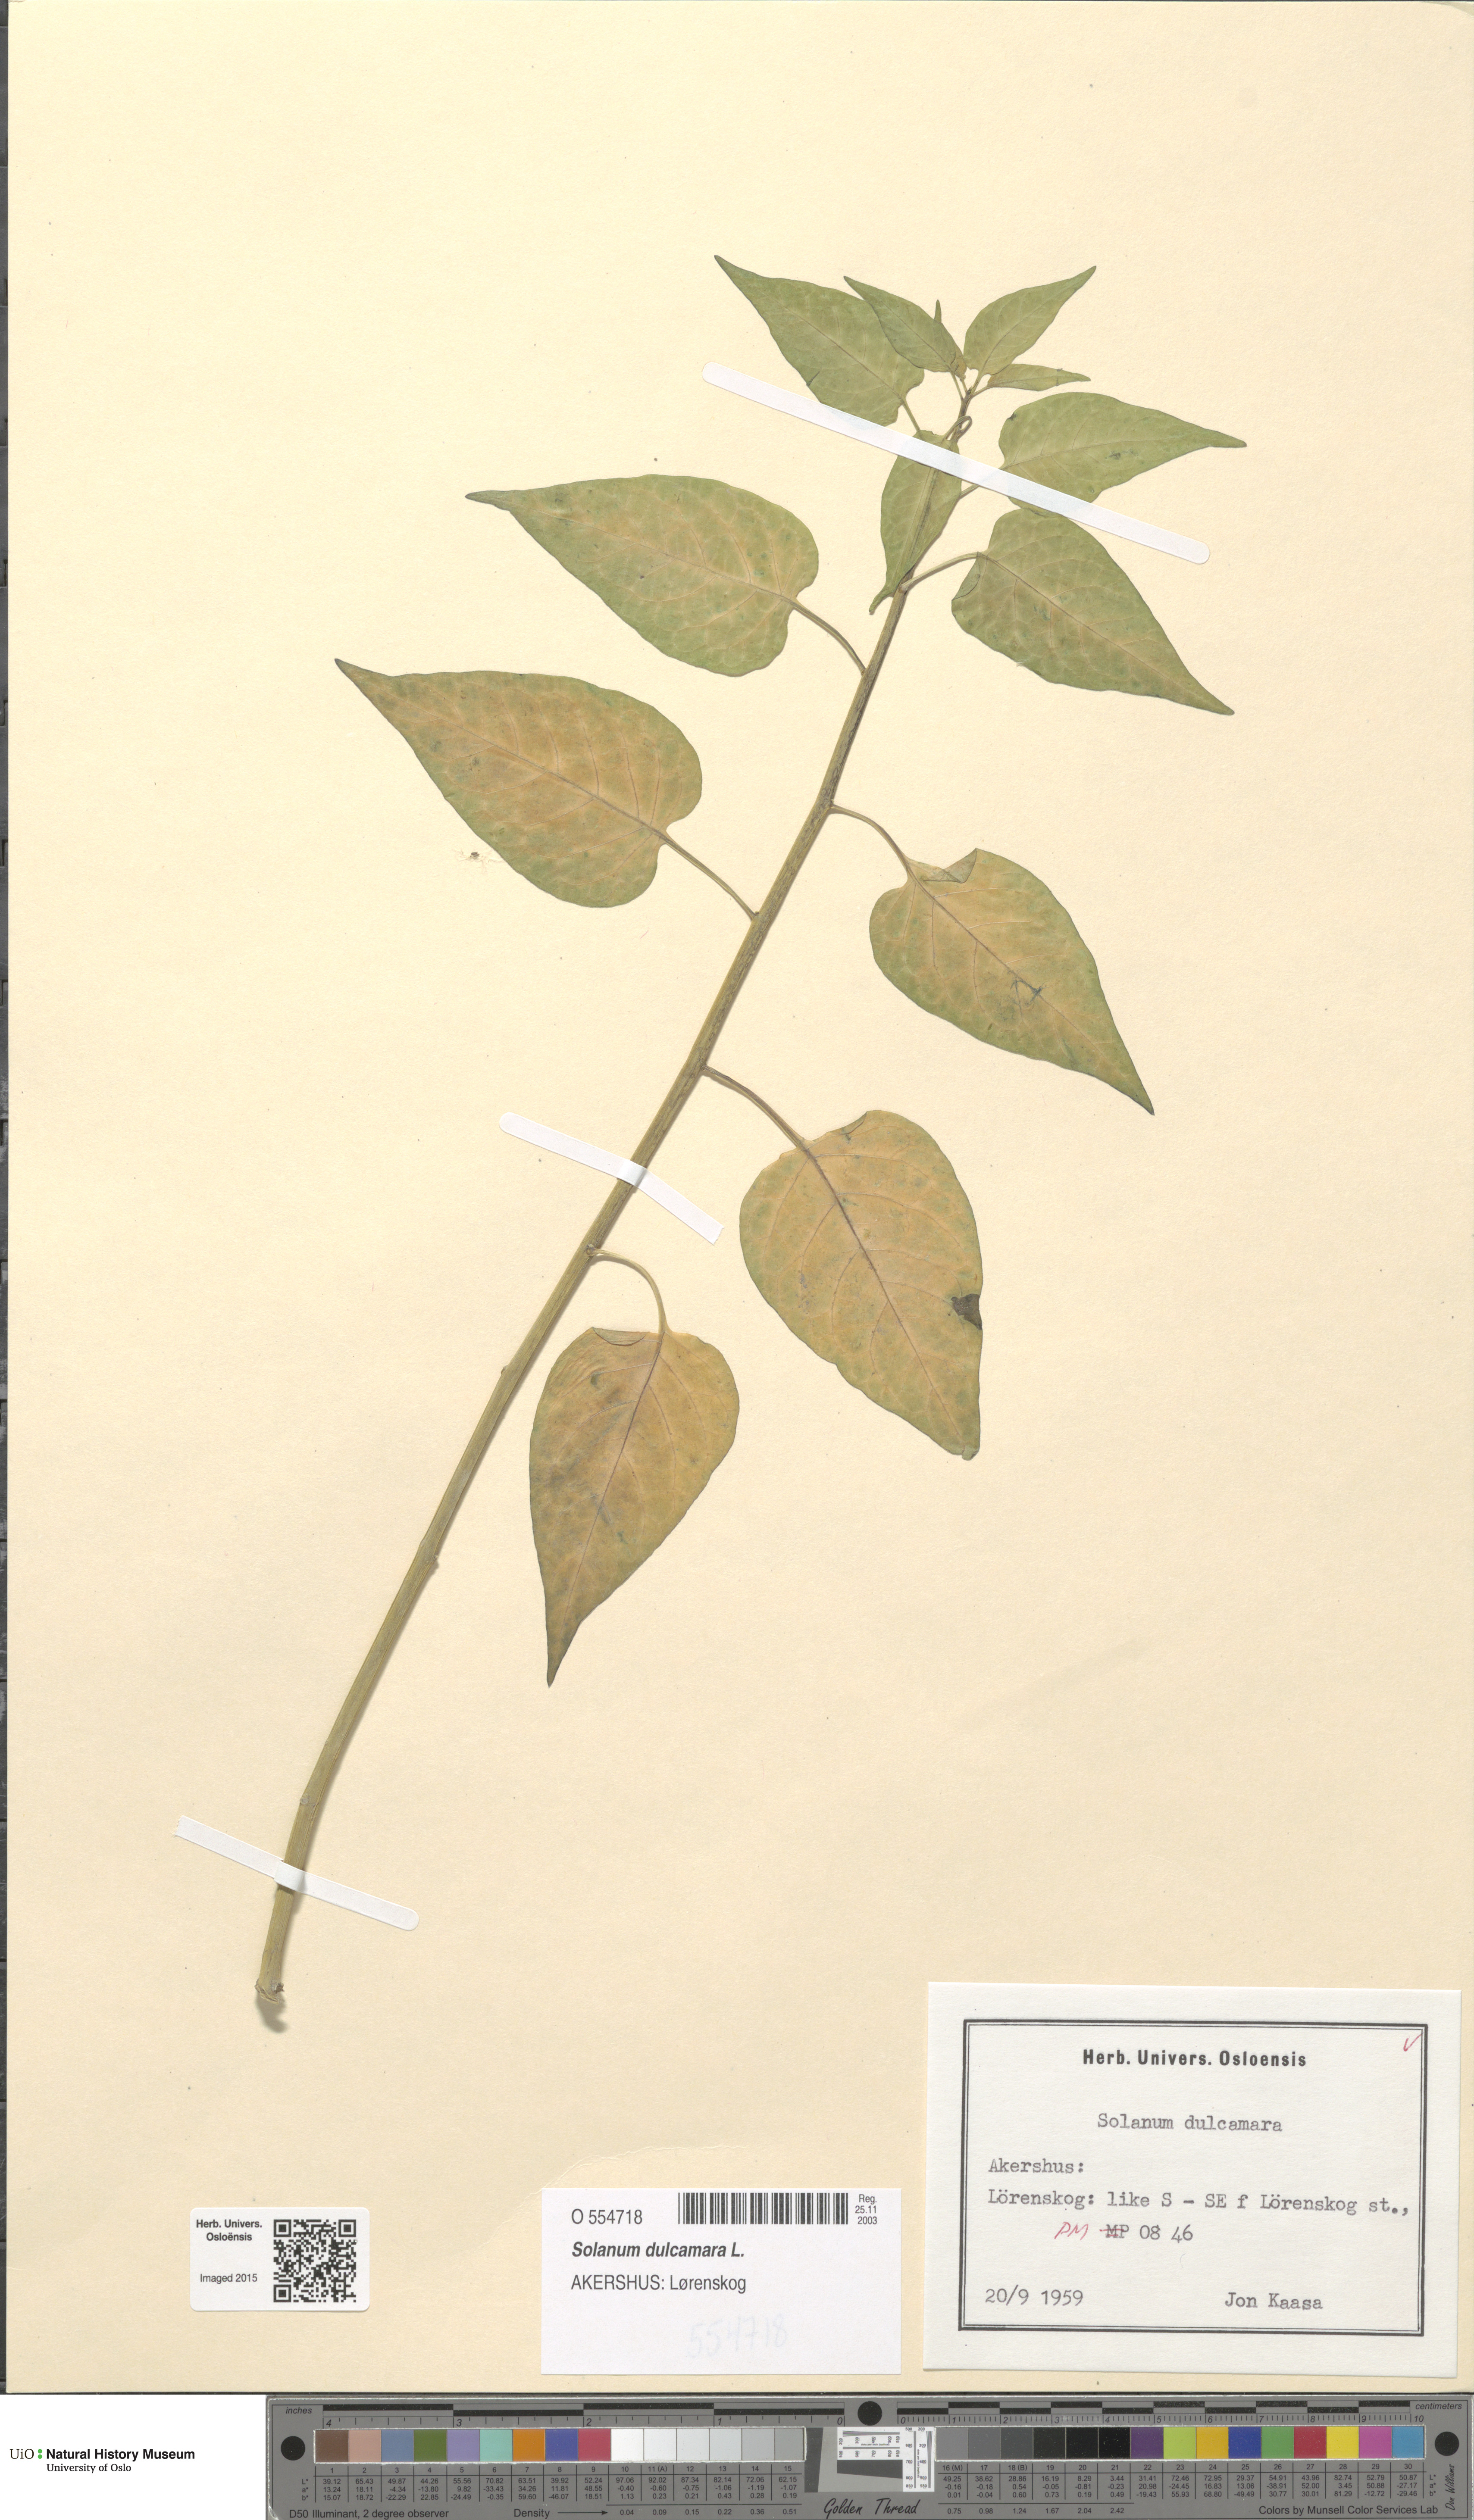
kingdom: Plantae
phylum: Tracheophyta
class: Magnoliopsida
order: Solanales
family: Solanaceae
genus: Solanum
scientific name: Solanum dulcamara
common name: Climbing nightshade
